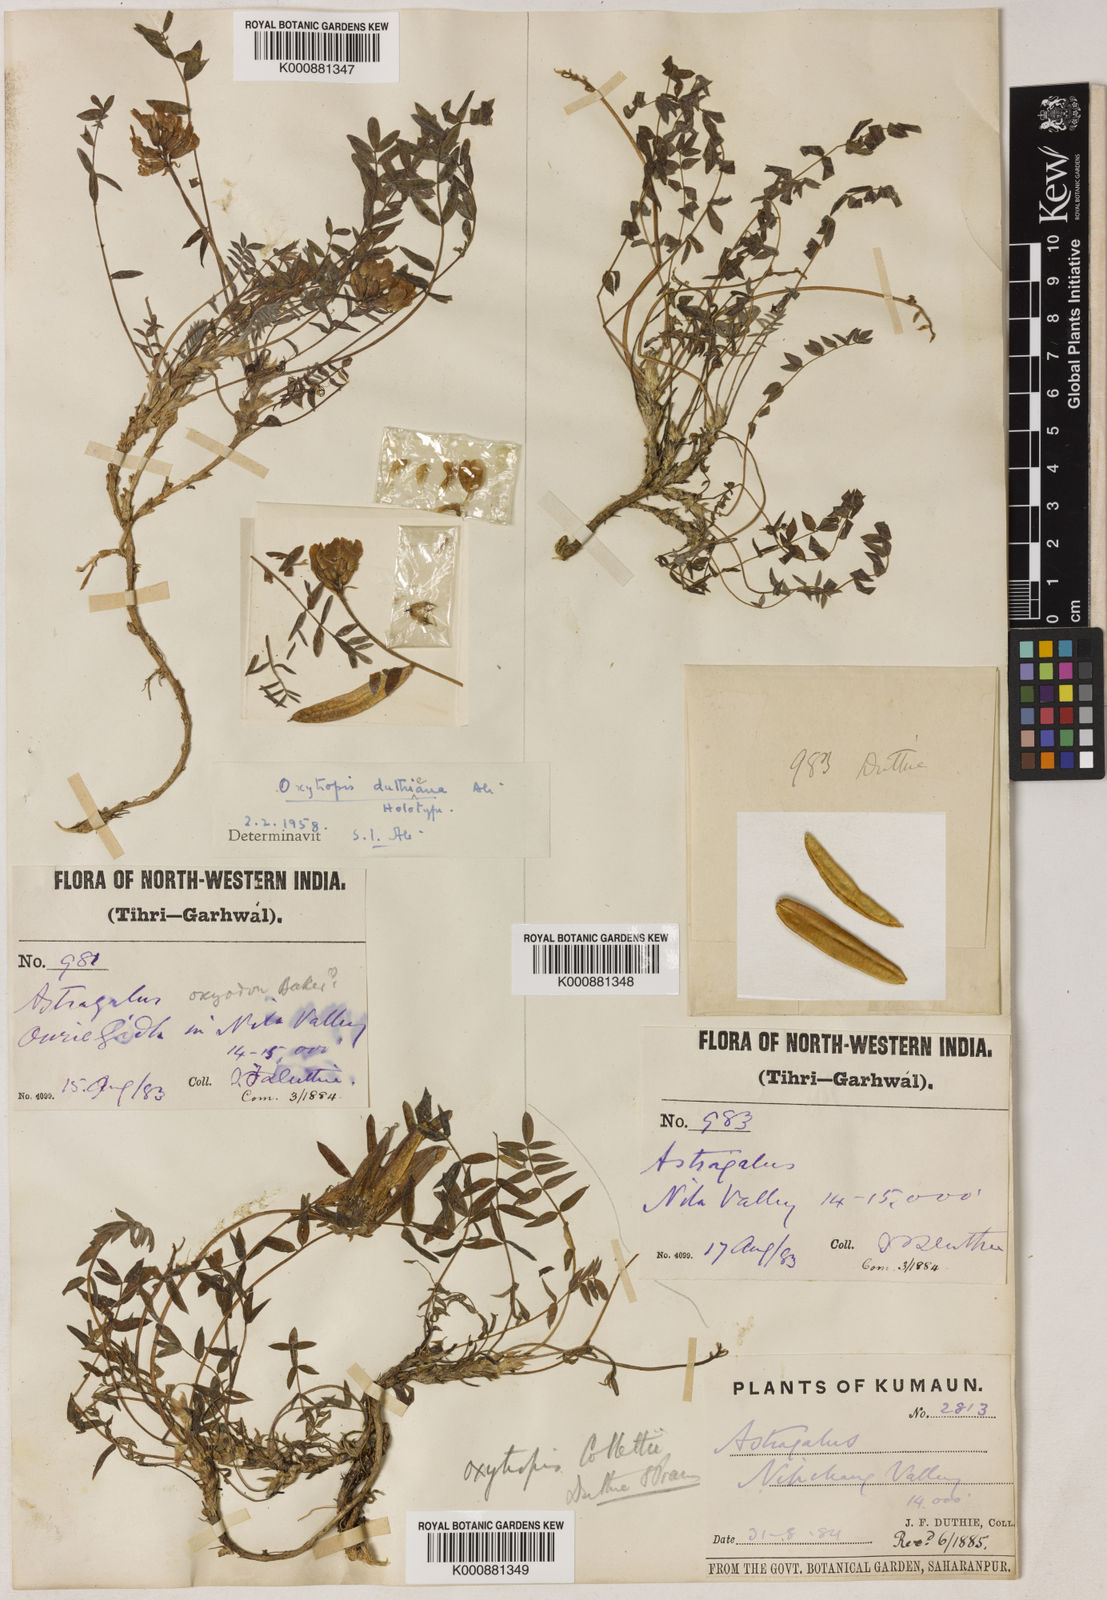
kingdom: Plantae
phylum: Tracheophyta
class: Magnoliopsida
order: Fabales
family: Fabaceae
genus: Oxytropis
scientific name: Oxytropis duthieana
